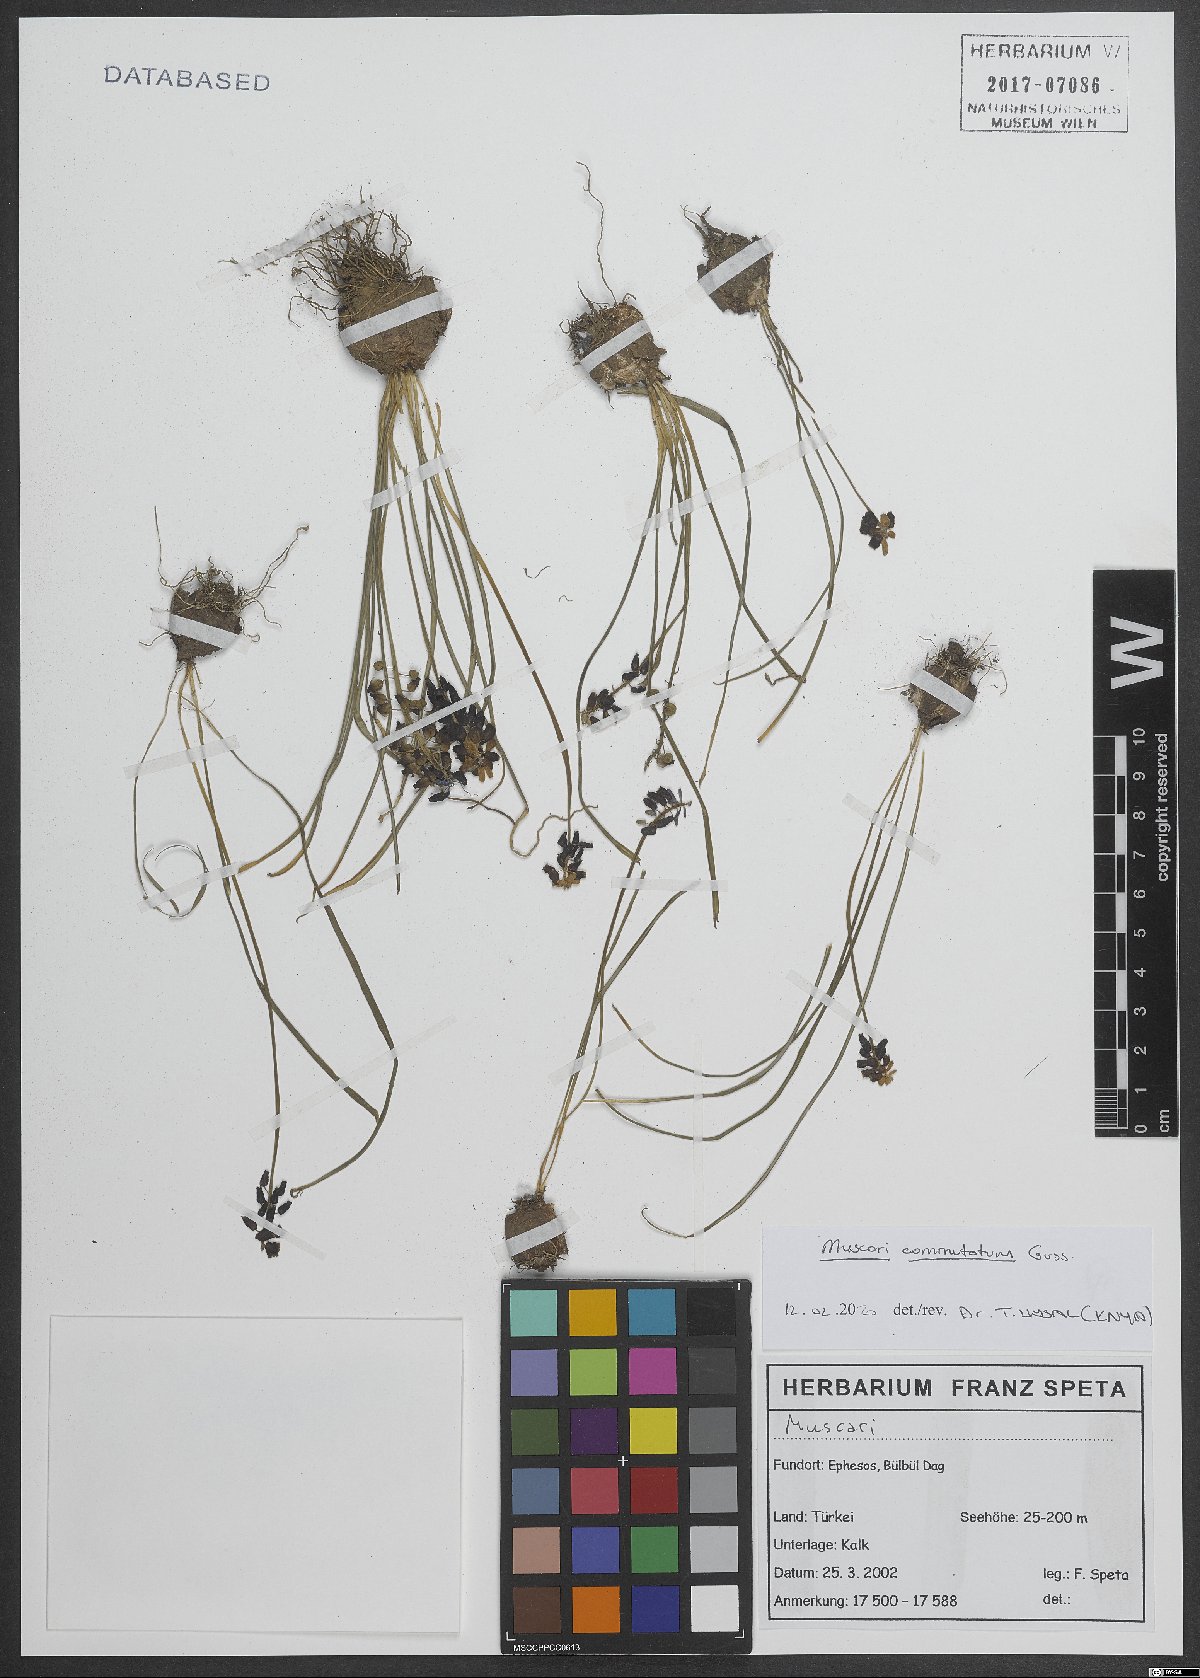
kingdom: Plantae
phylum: Tracheophyta
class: Liliopsida
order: Asparagales
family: Asparagaceae
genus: Muscari
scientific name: Muscari commutatum
